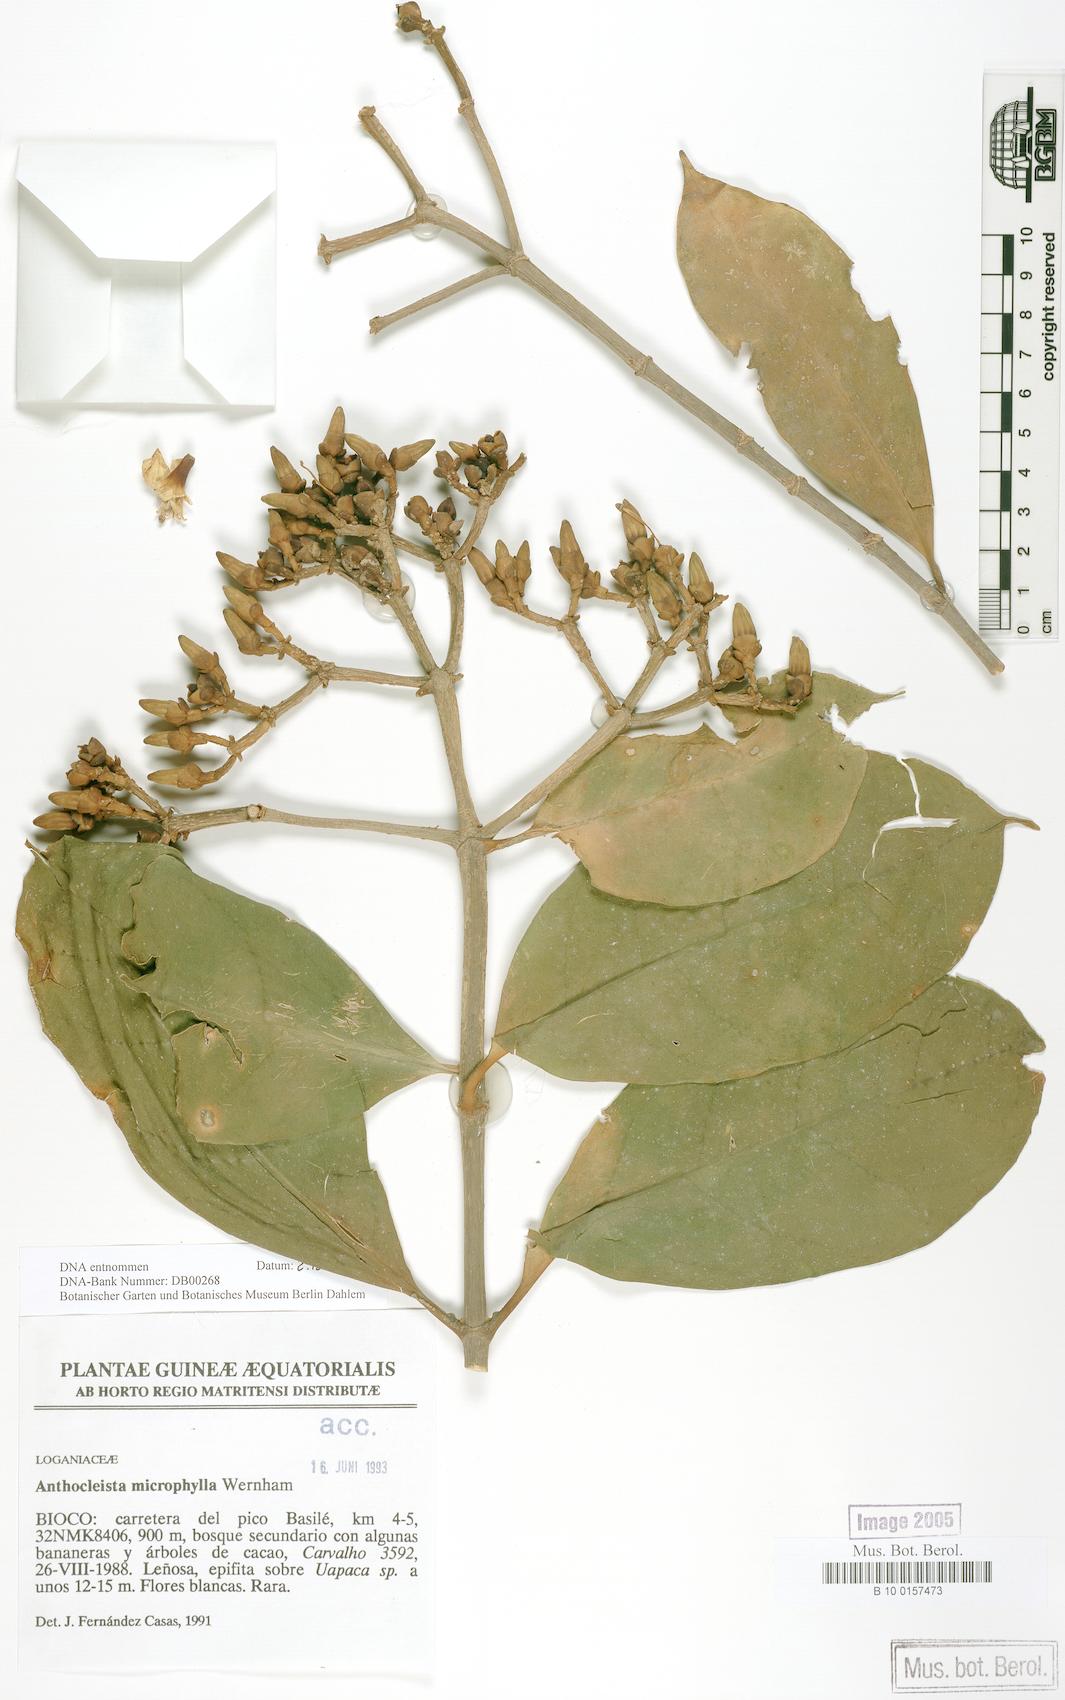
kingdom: Plantae
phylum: Tracheophyta
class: Magnoliopsida
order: Gentianales
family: Gentianaceae
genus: Anthocleista
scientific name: Anthocleista microphylla
